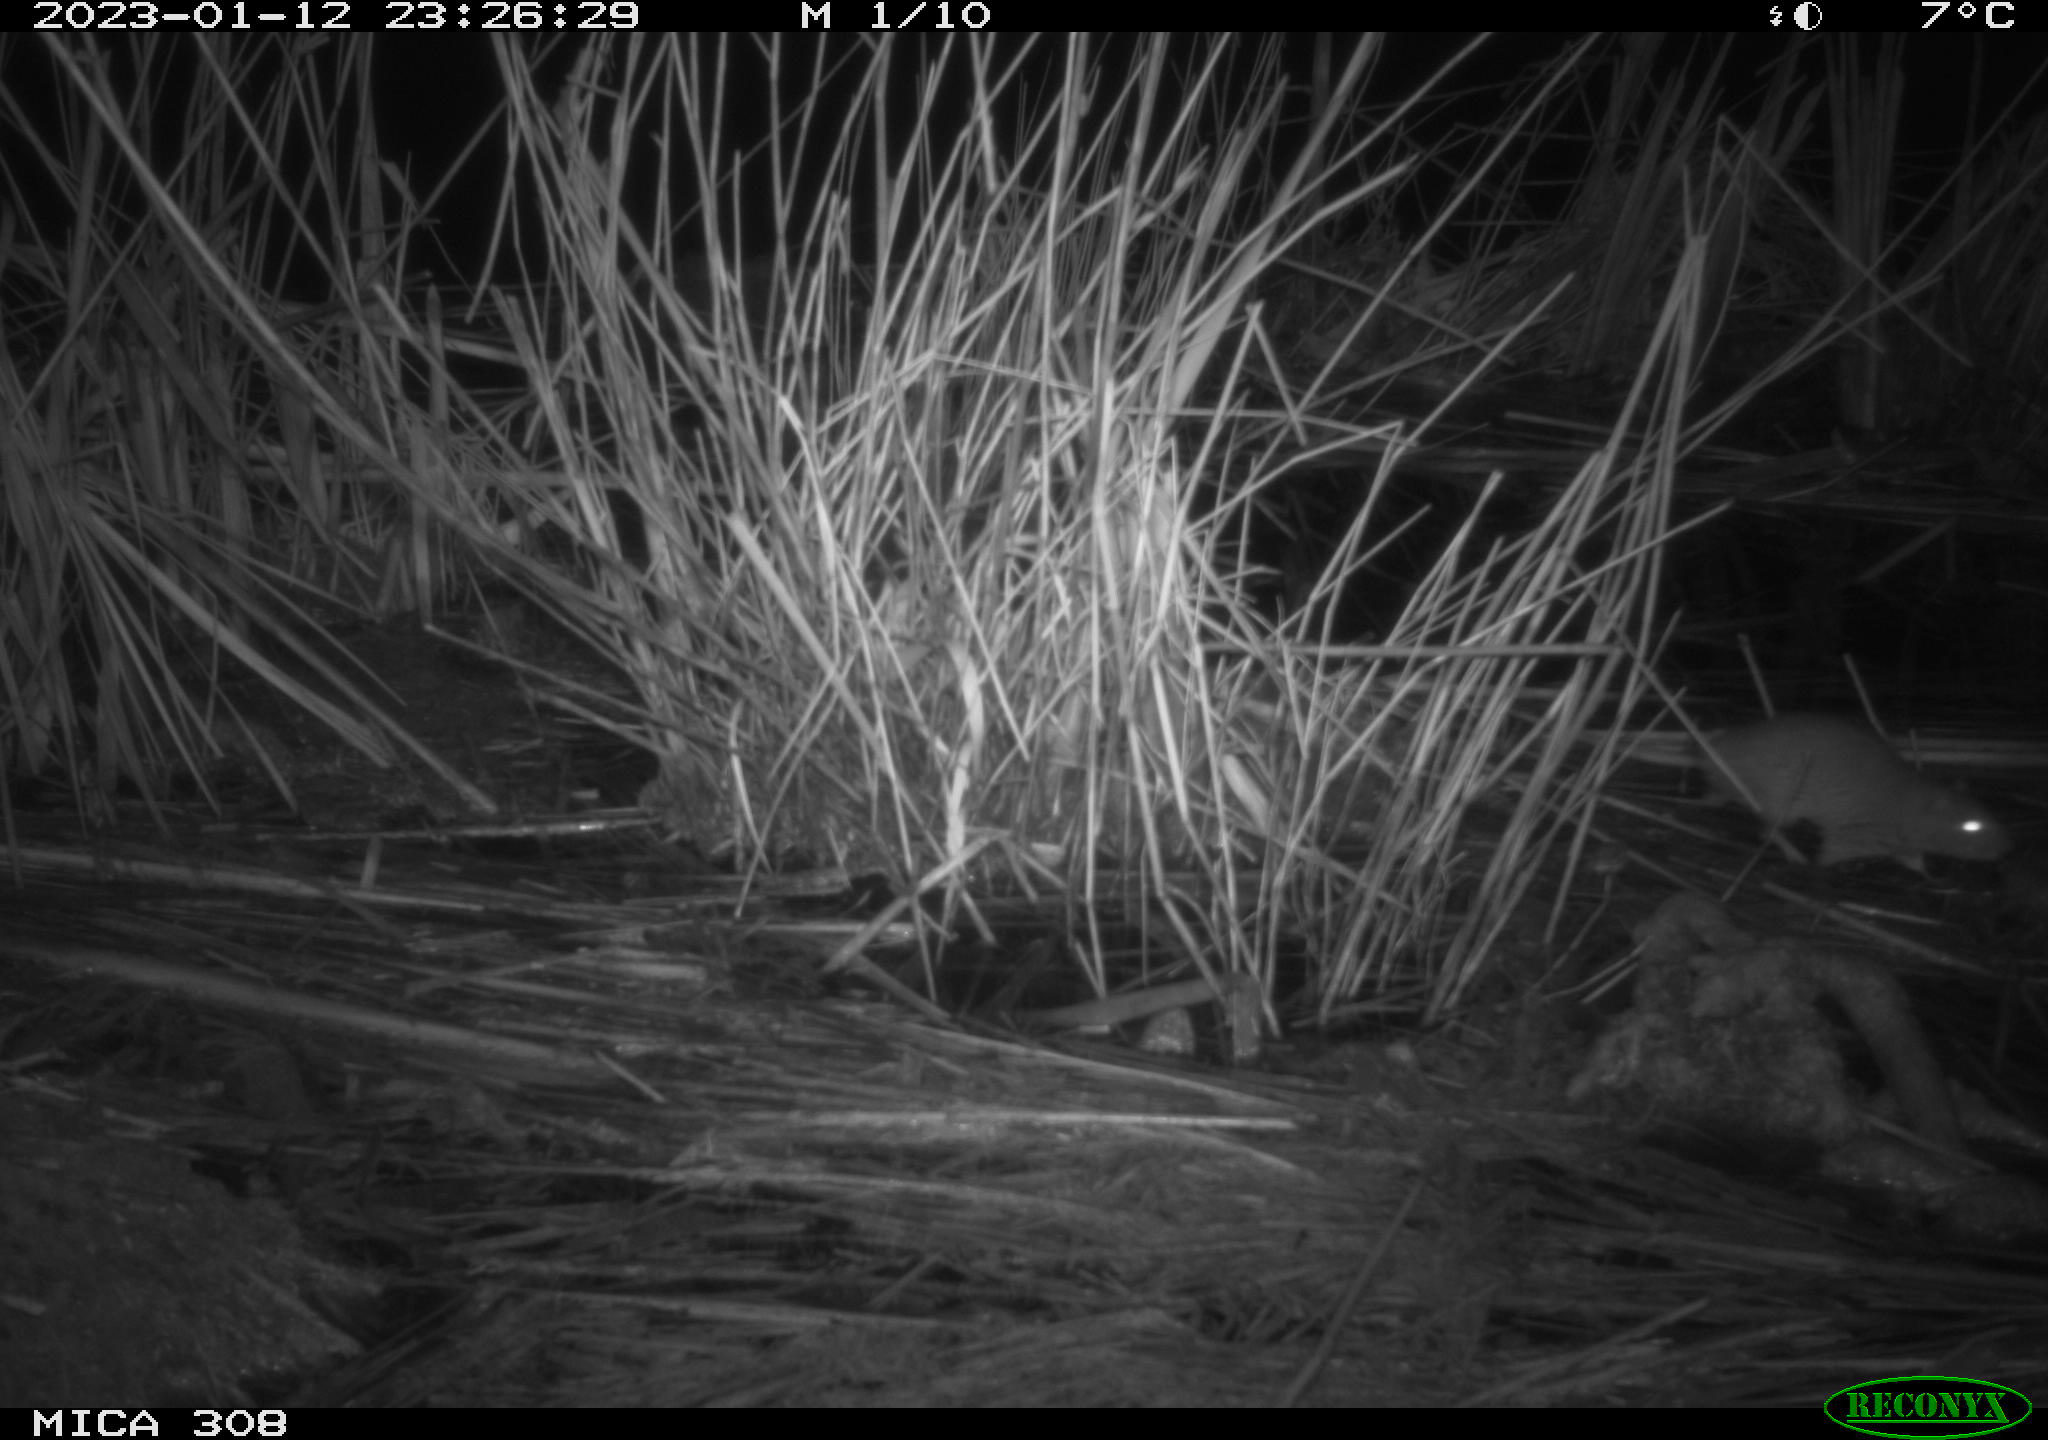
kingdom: Animalia
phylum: Chordata
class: Mammalia
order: Rodentia
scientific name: Rodentia
